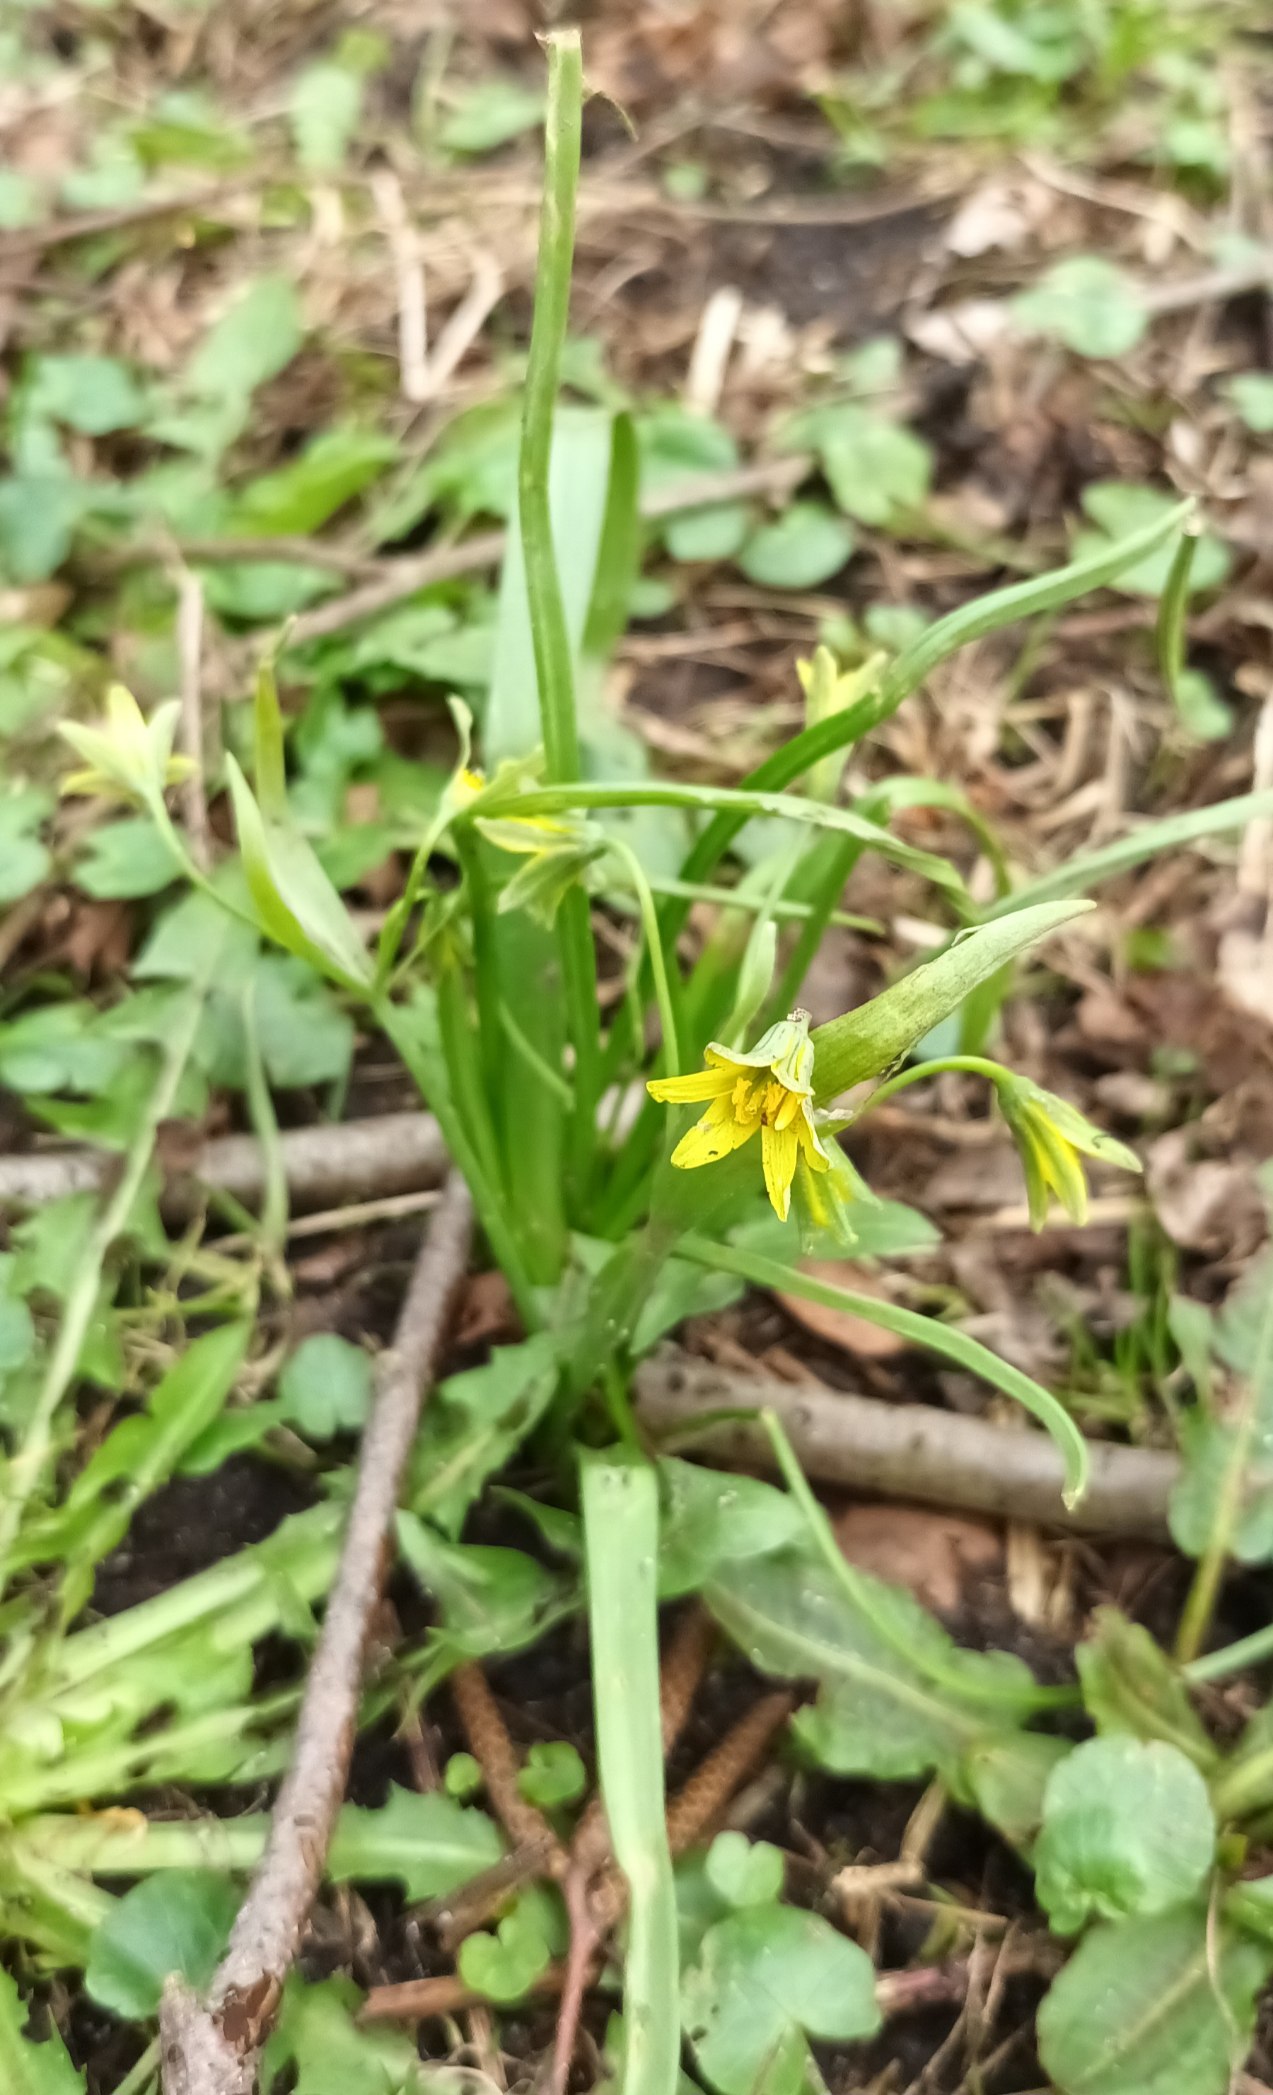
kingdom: Plantae
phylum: Tracheophyta
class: Liliopsida
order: Liliales
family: Liliaceae
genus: Gagea
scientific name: Gagea lutea
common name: Almindelig guldstjerne
